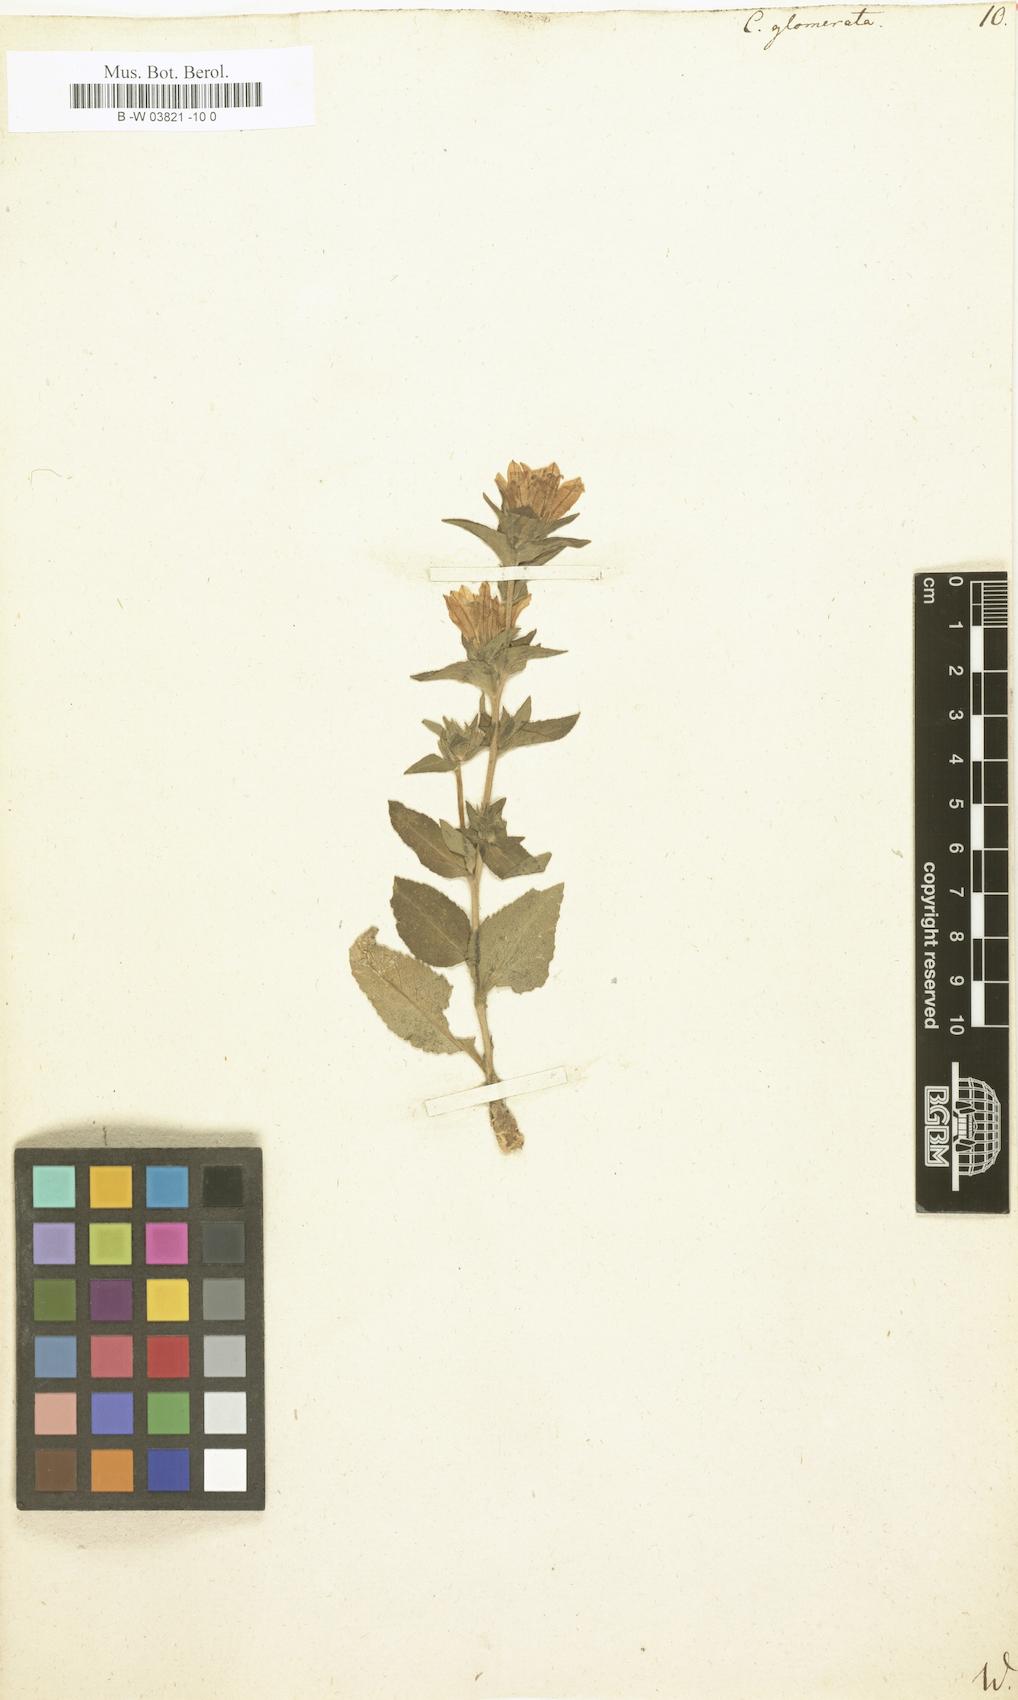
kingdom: Plantae
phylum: Tracheophyta
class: Magnoliopsida
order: Asterales
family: Campanulaceae
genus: Campanula
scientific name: Campanula glomerata
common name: Clustered bellflower
